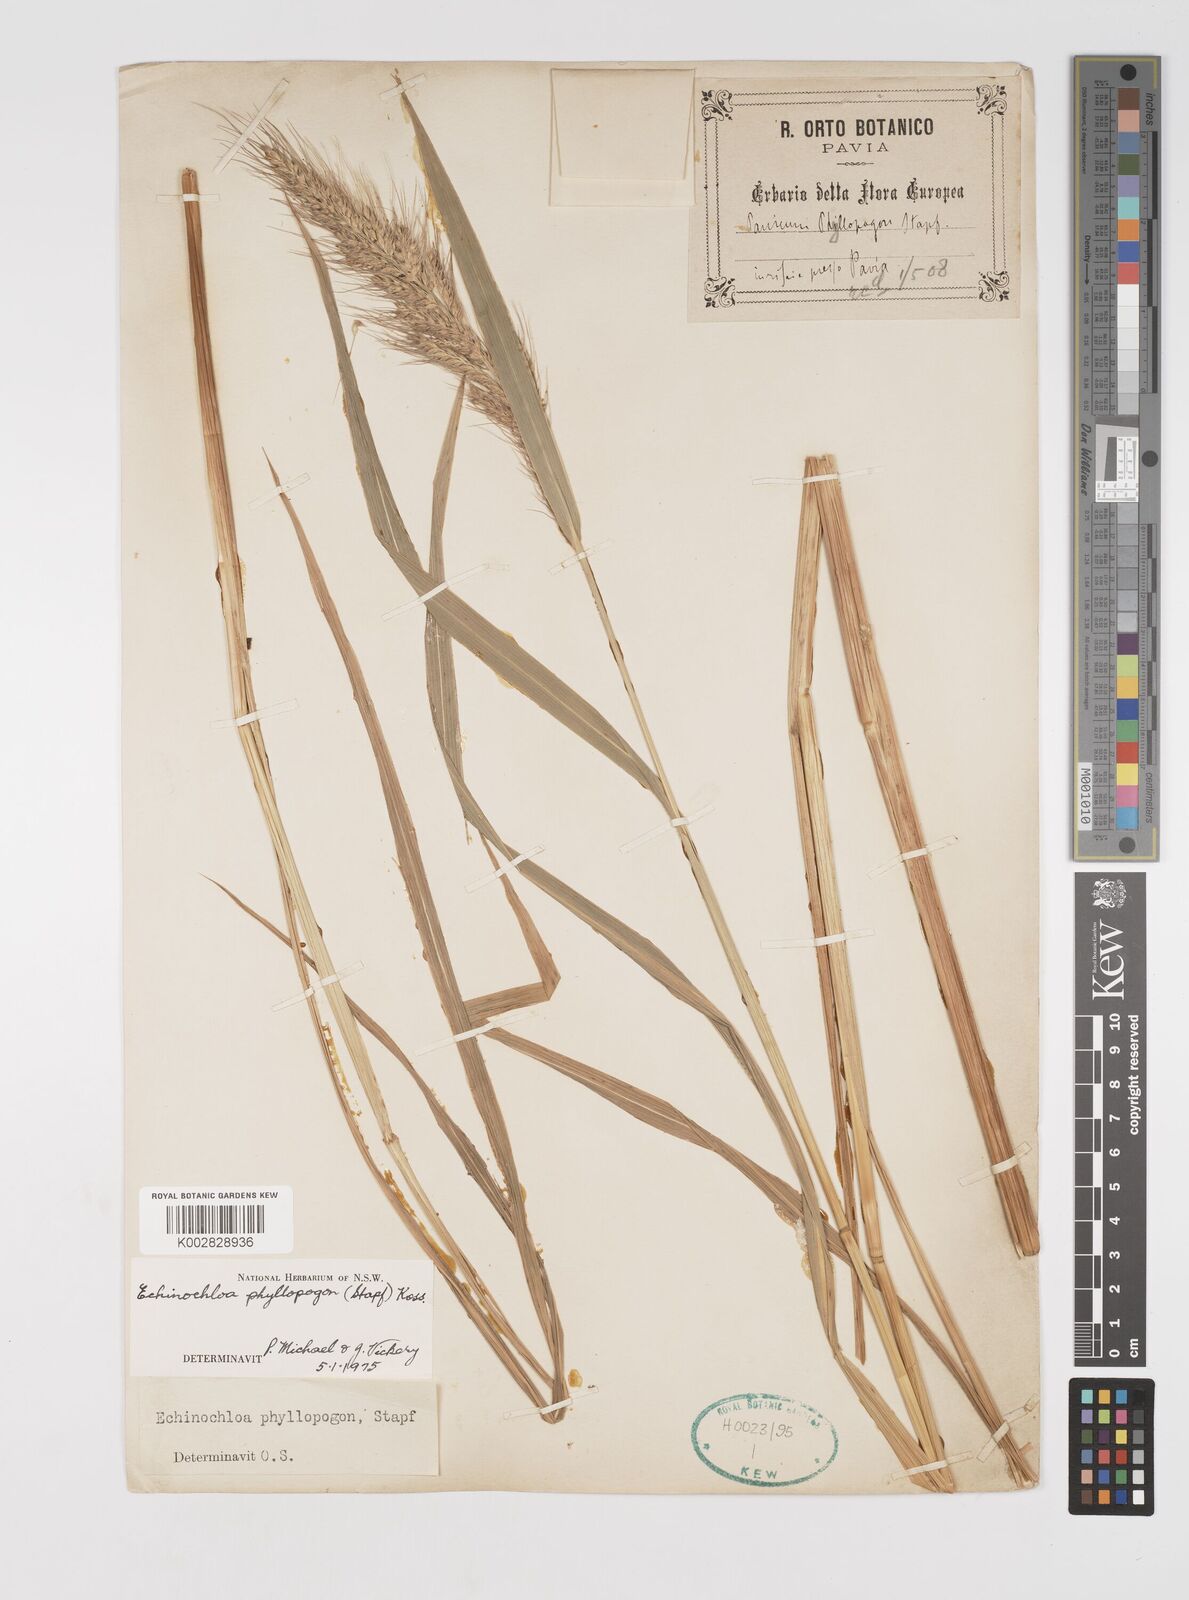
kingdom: Plantae
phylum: Tracheophyta
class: Liliopsida
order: Poales
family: Poaceae
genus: Echinochloa
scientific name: Echinochloa oryzoides
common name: Early water grass
